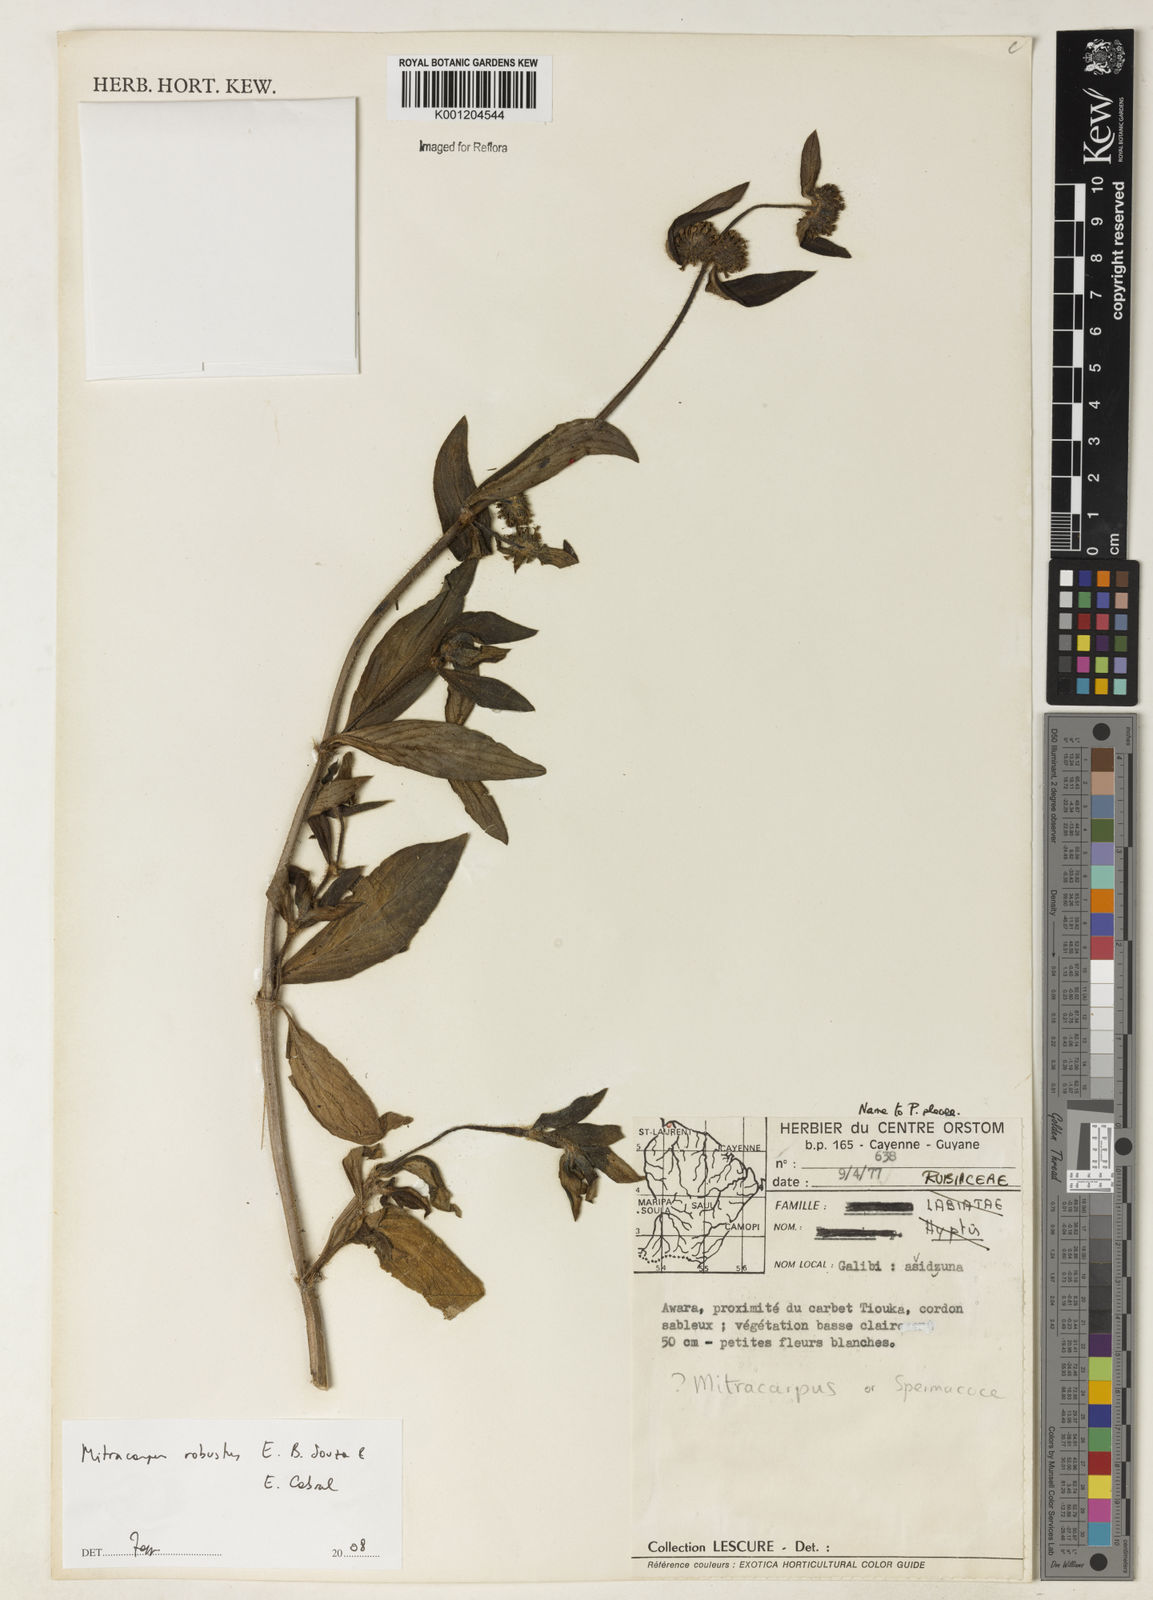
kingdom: Plantae
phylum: Tracheophyta
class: Magnoliopsida
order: Gentianales
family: Rubiaceae
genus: Mitracarpus
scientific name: Mitracarpus robustus
